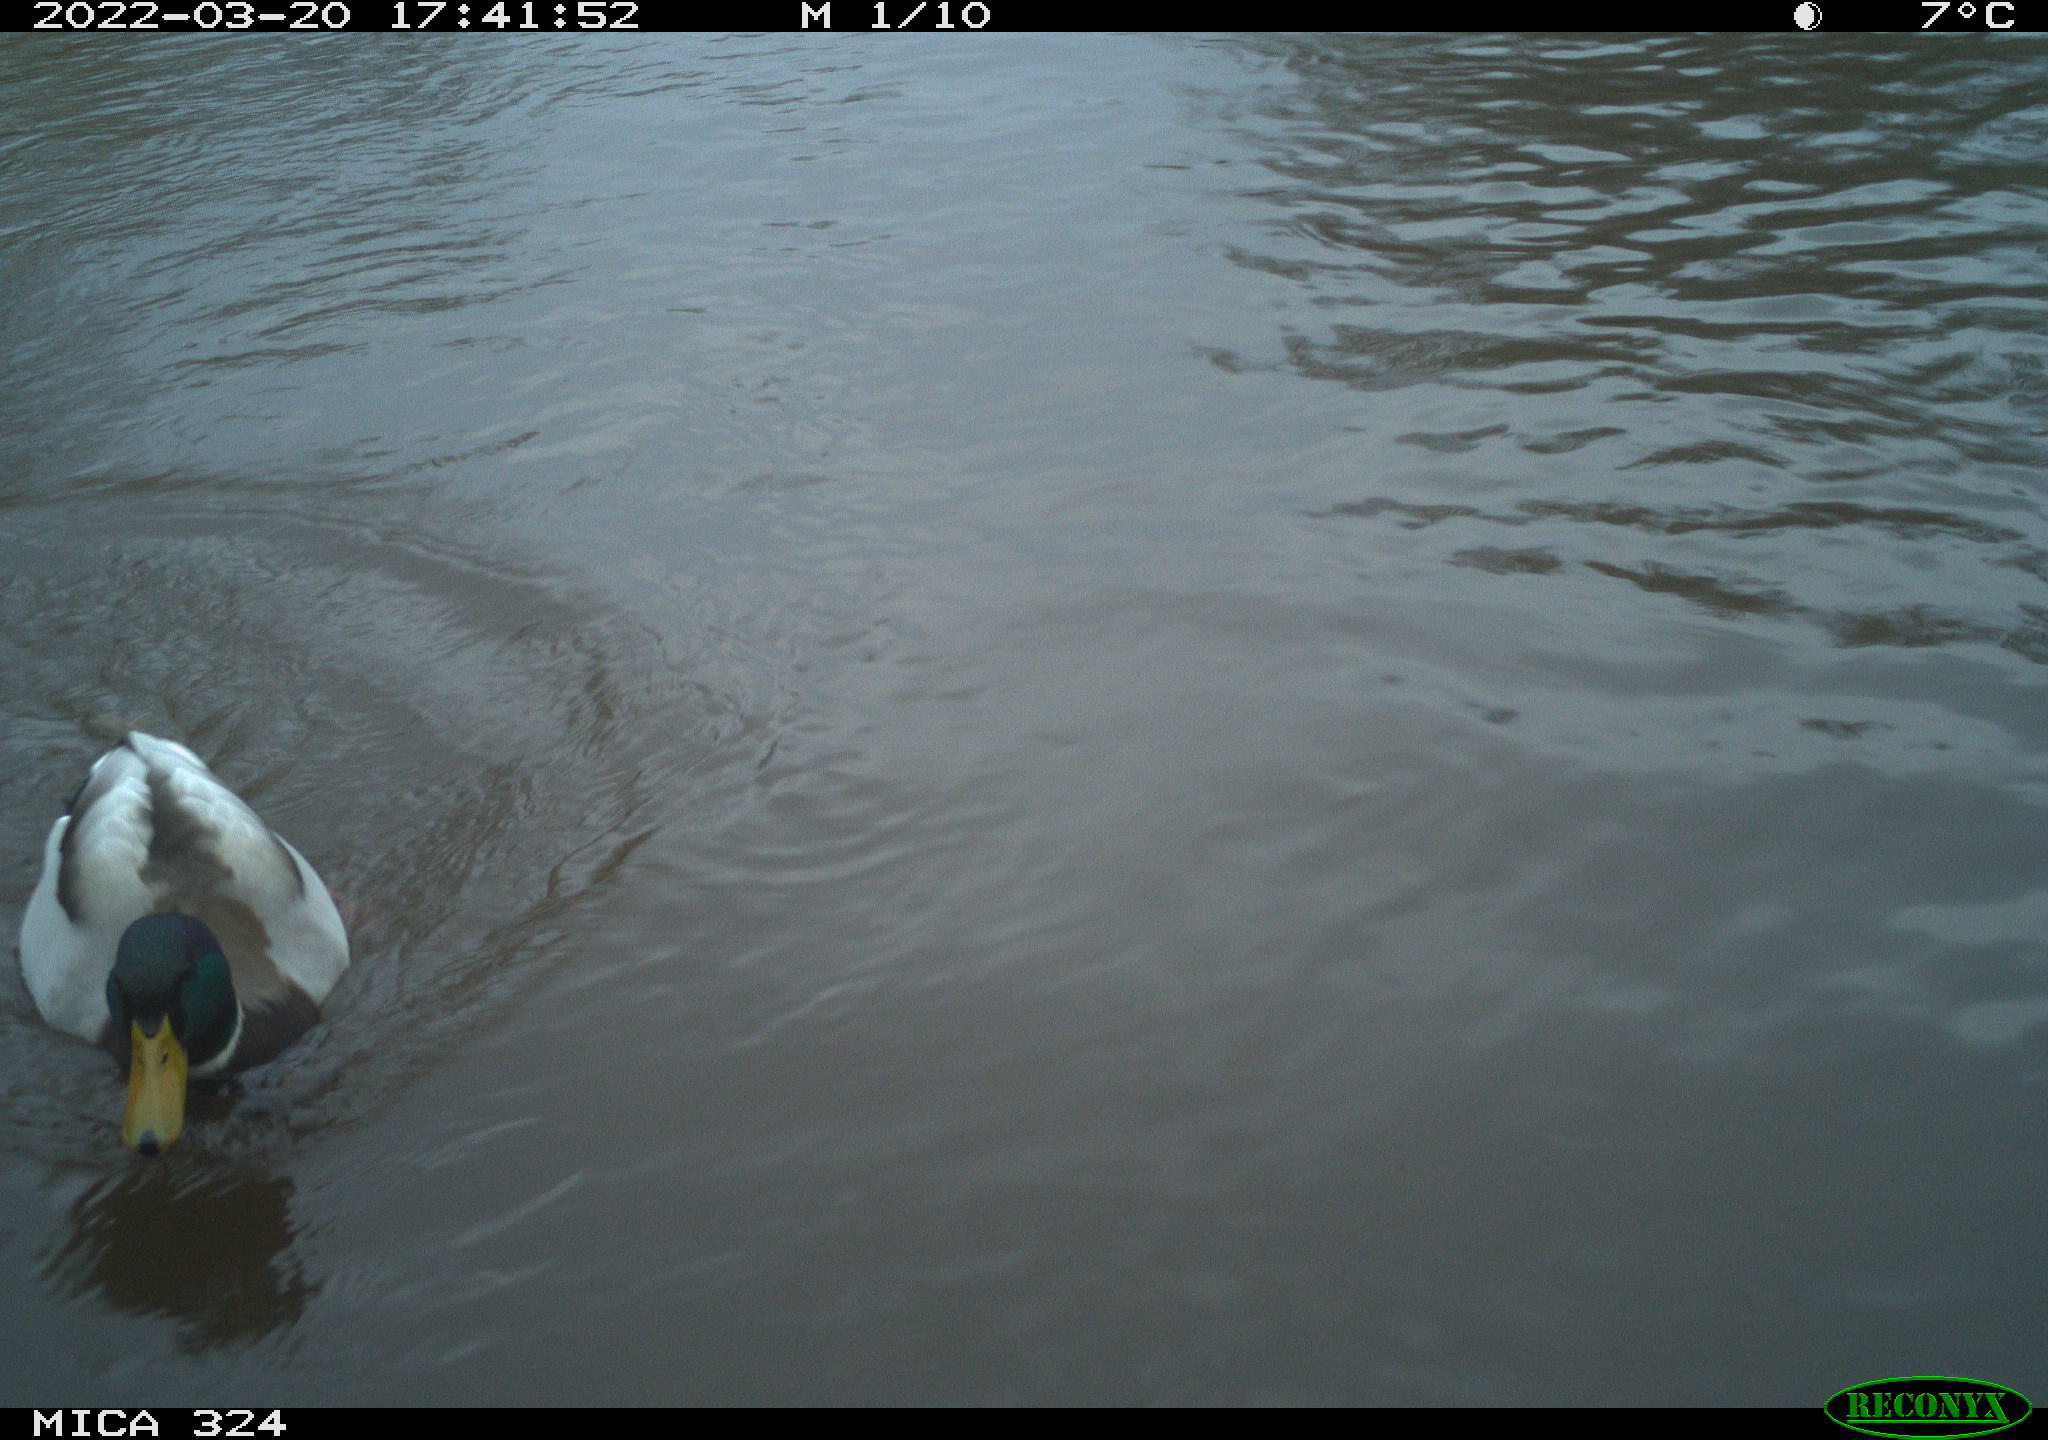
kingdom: Animalia
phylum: Chordata
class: Aves
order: Anseriformes
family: Anatidae
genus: Anas
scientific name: Anas platyrhynchos
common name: Mallard
